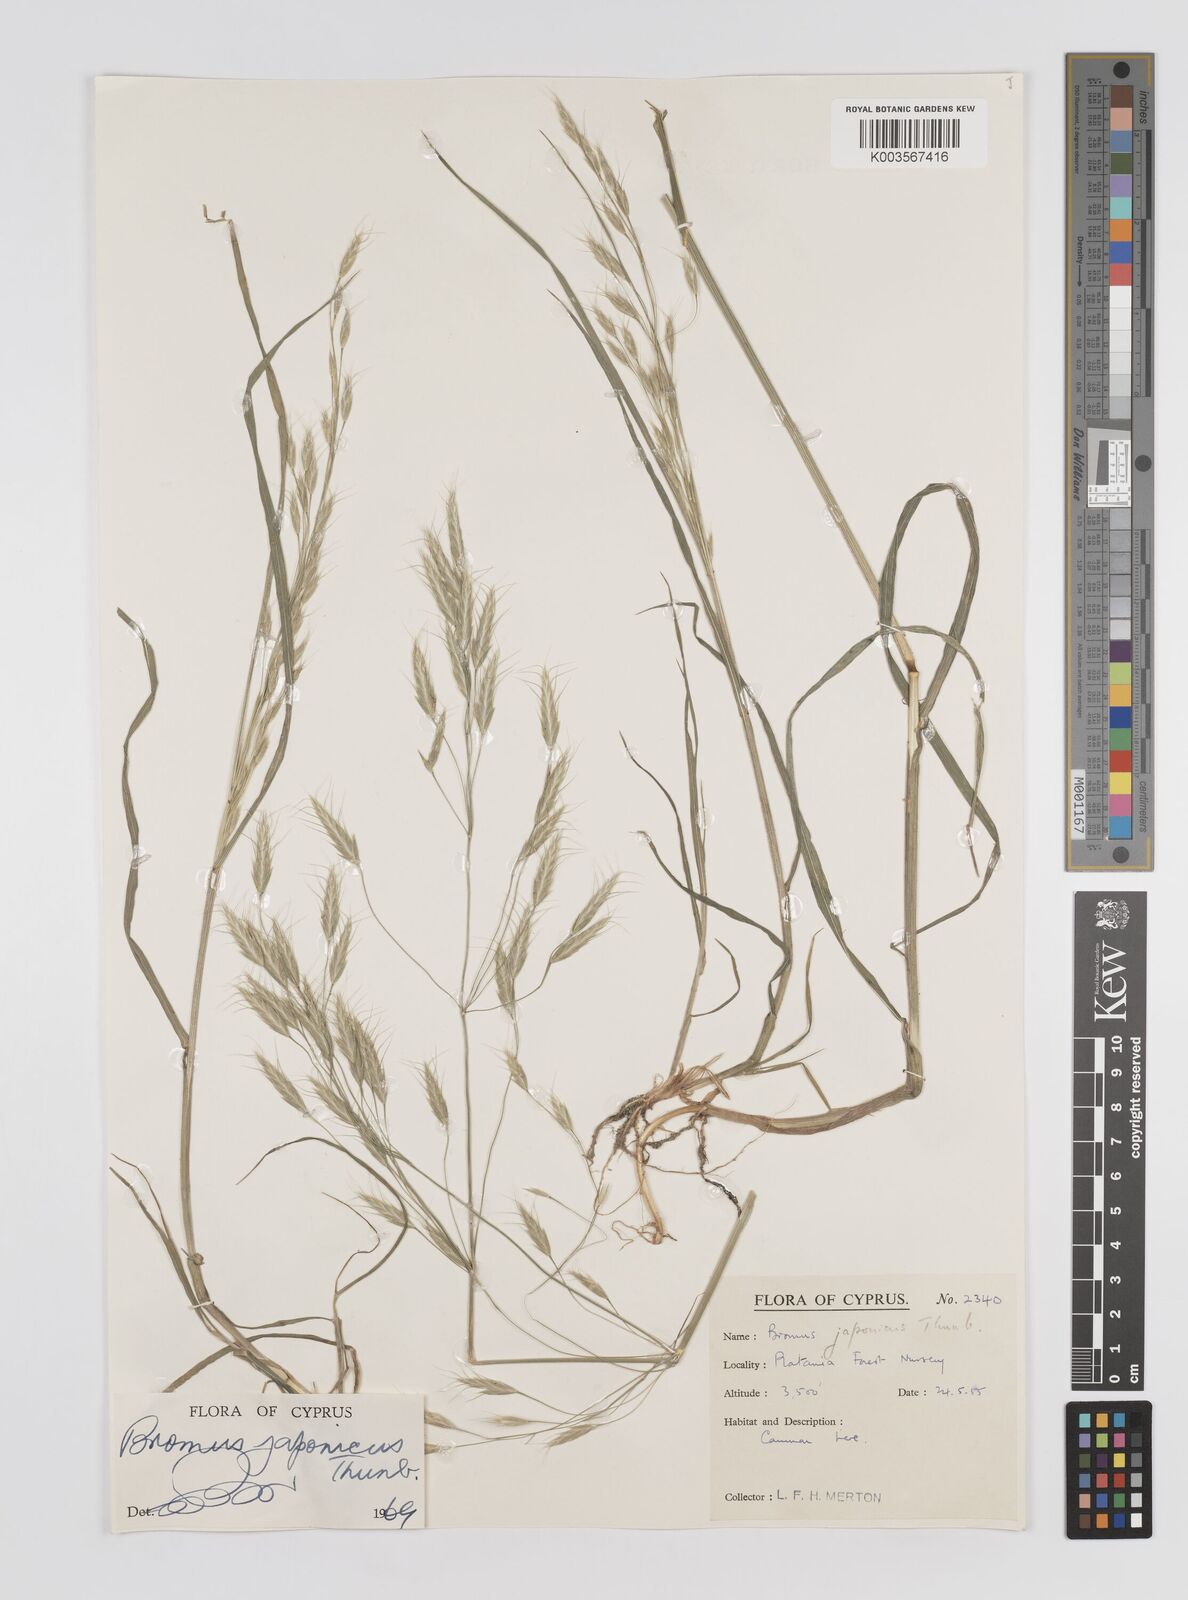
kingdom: Plantae
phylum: Tracheophyta
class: Liliopsida
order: Poales
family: Poaceae
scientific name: Poaceae
